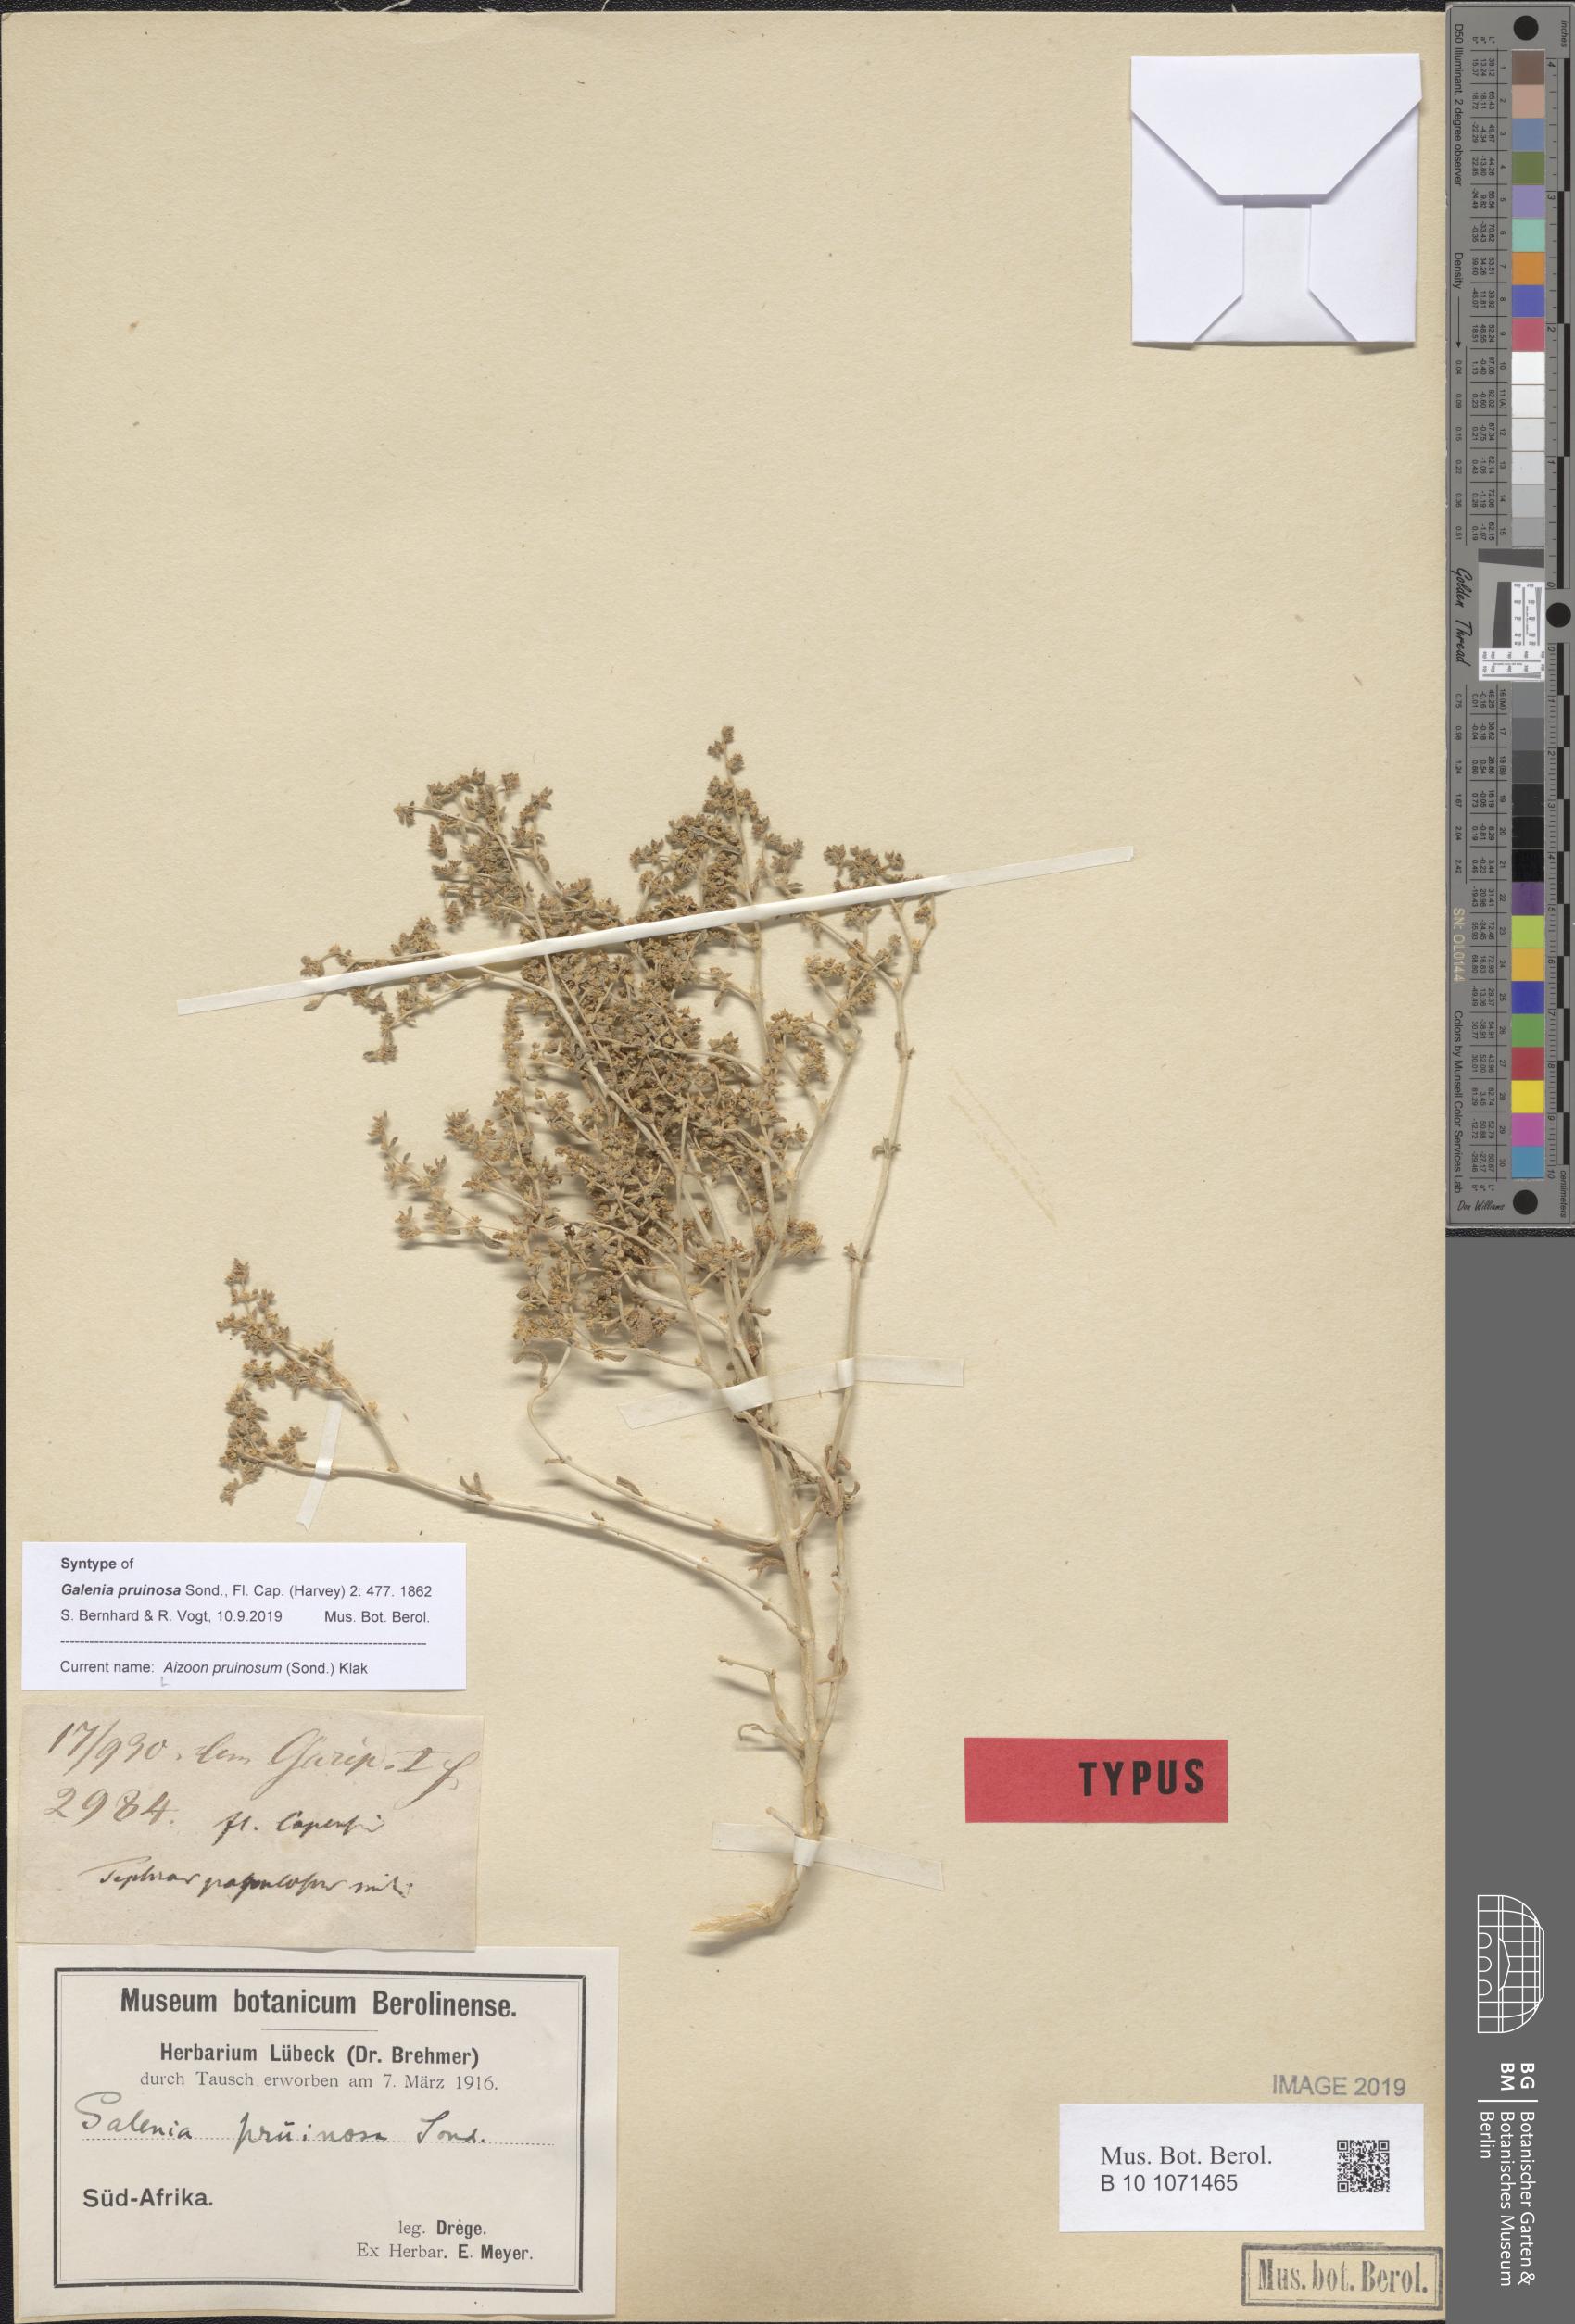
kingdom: Plantae
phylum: Tracheophyta
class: Magnoliopsida
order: Caryophyllales
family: Aizoaceae
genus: Aizoon
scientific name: Aizoon pruinosum
